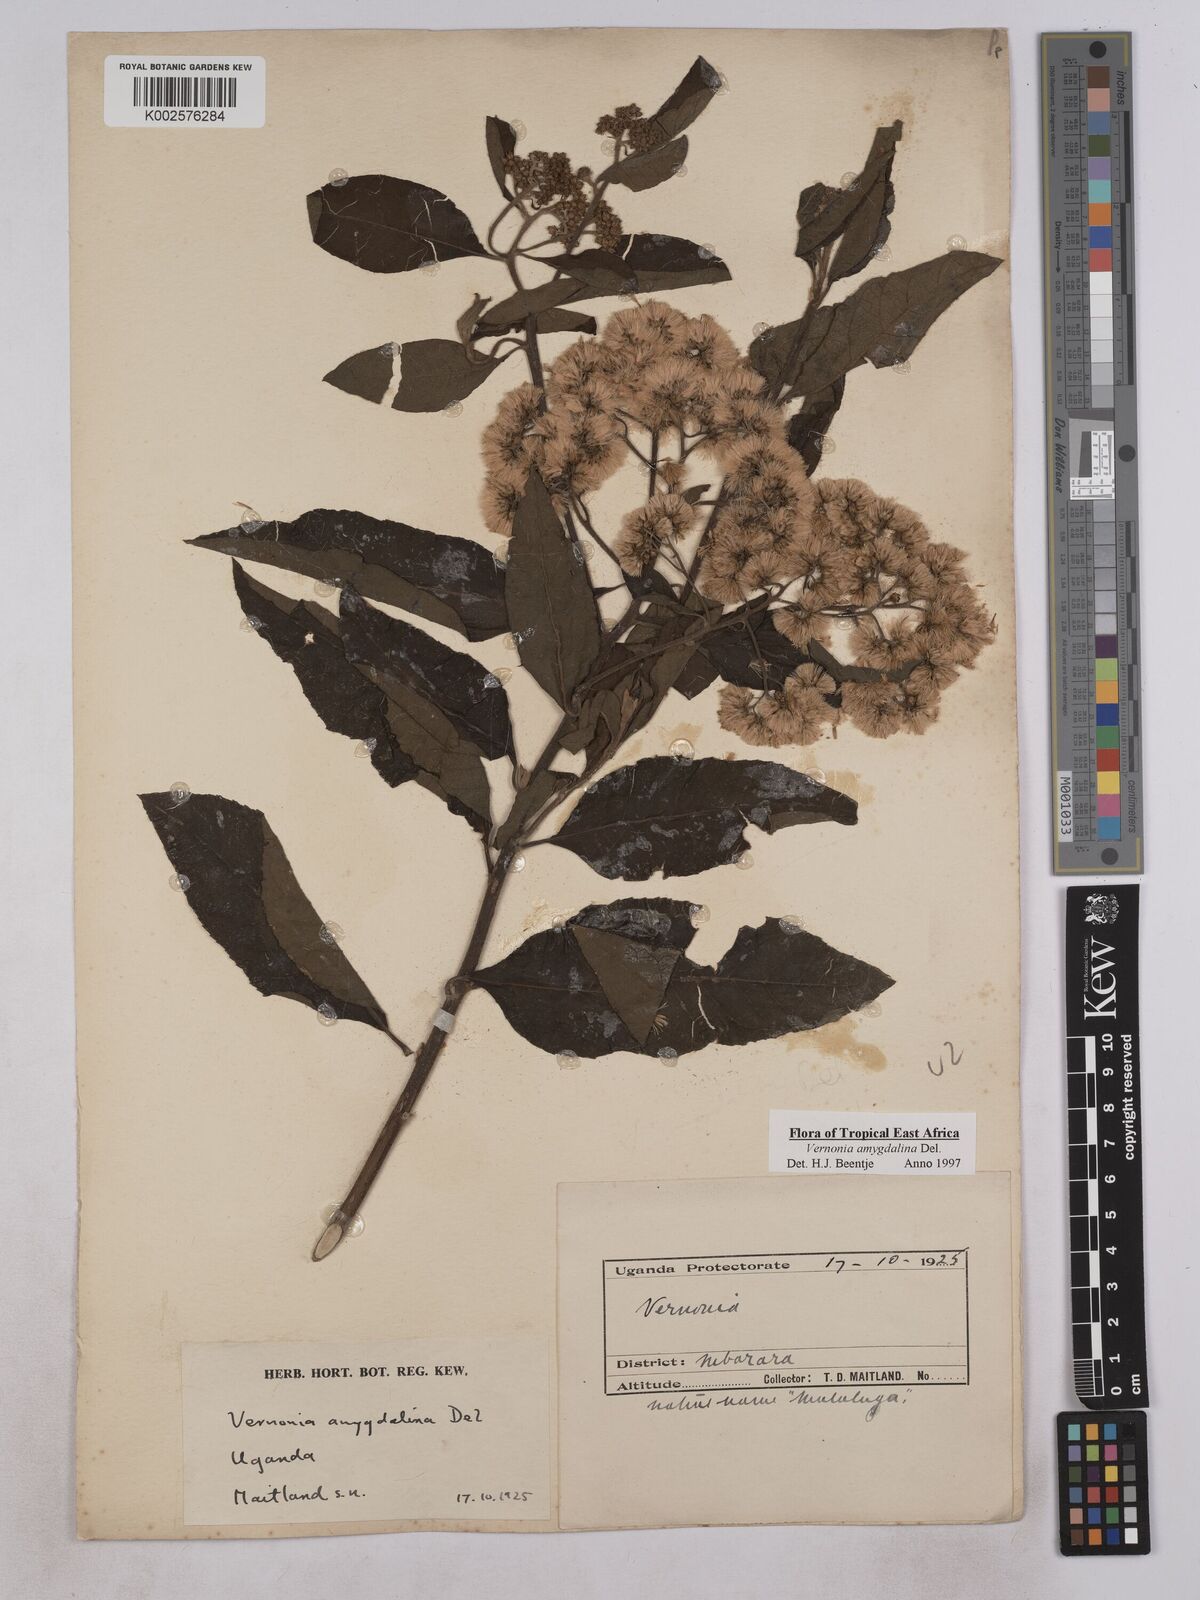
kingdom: Plantae
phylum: Tracheophyta
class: Magnoliopsida
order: Asterales
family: Asteraceae
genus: Gymnanthemum
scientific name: Gymnanthemum amygdalinum
